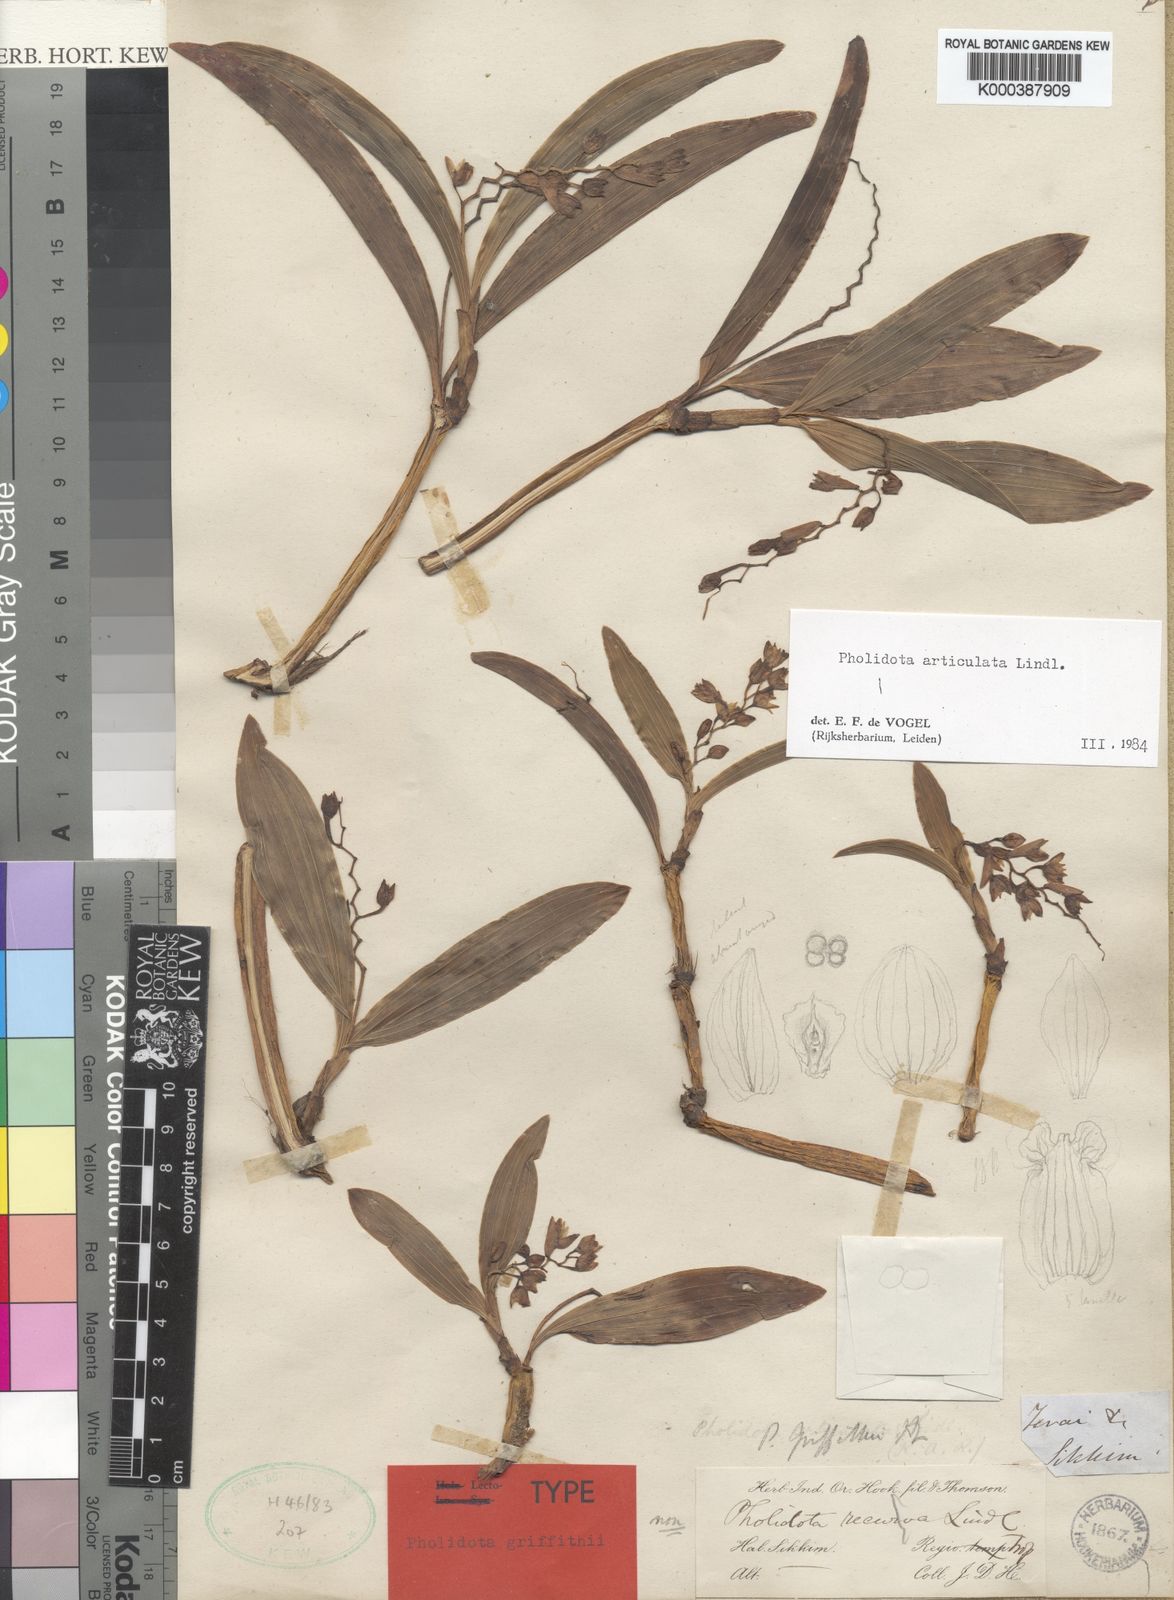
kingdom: Plantae
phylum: Tracheophyta
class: Liliopsida
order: Asparagales
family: Orchidaceae
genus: Coelogyne
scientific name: Coelogyne articulata
